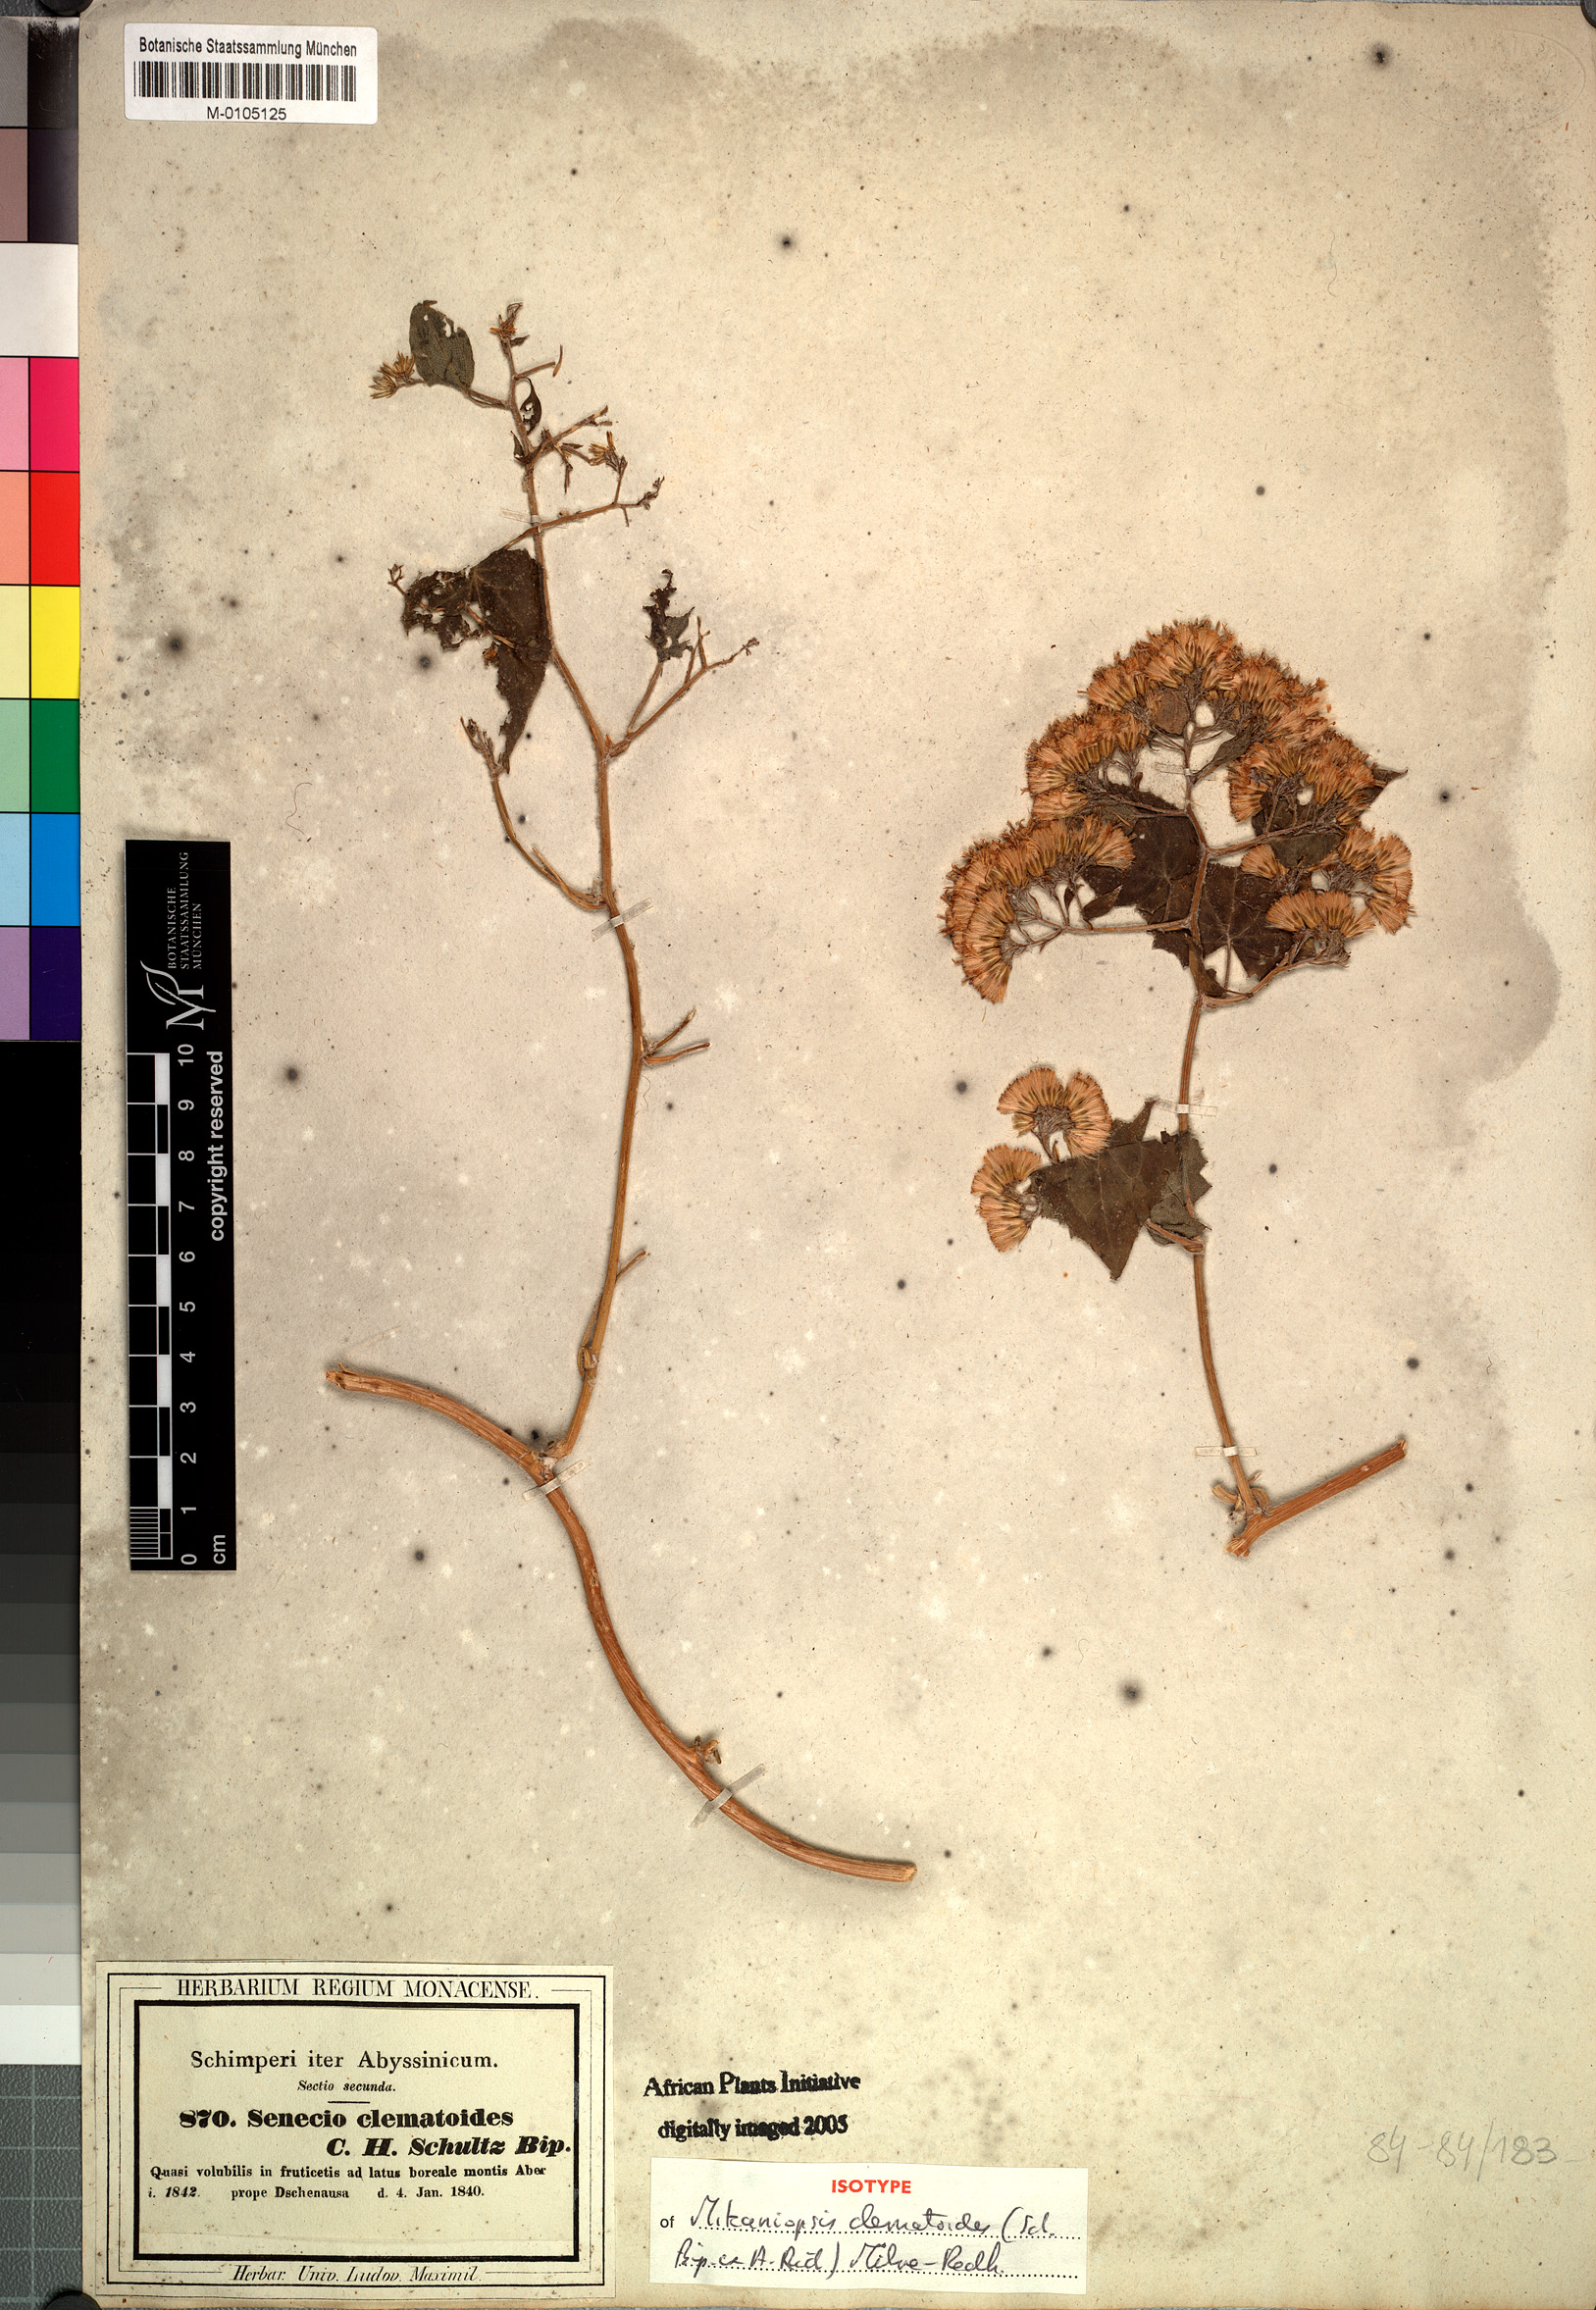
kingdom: Plantae
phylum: Tracheophyta
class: Magnoliopsida
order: Asterales
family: Asteraceae
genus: Mikaniopsis
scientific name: Mikaniopsis clematoides
